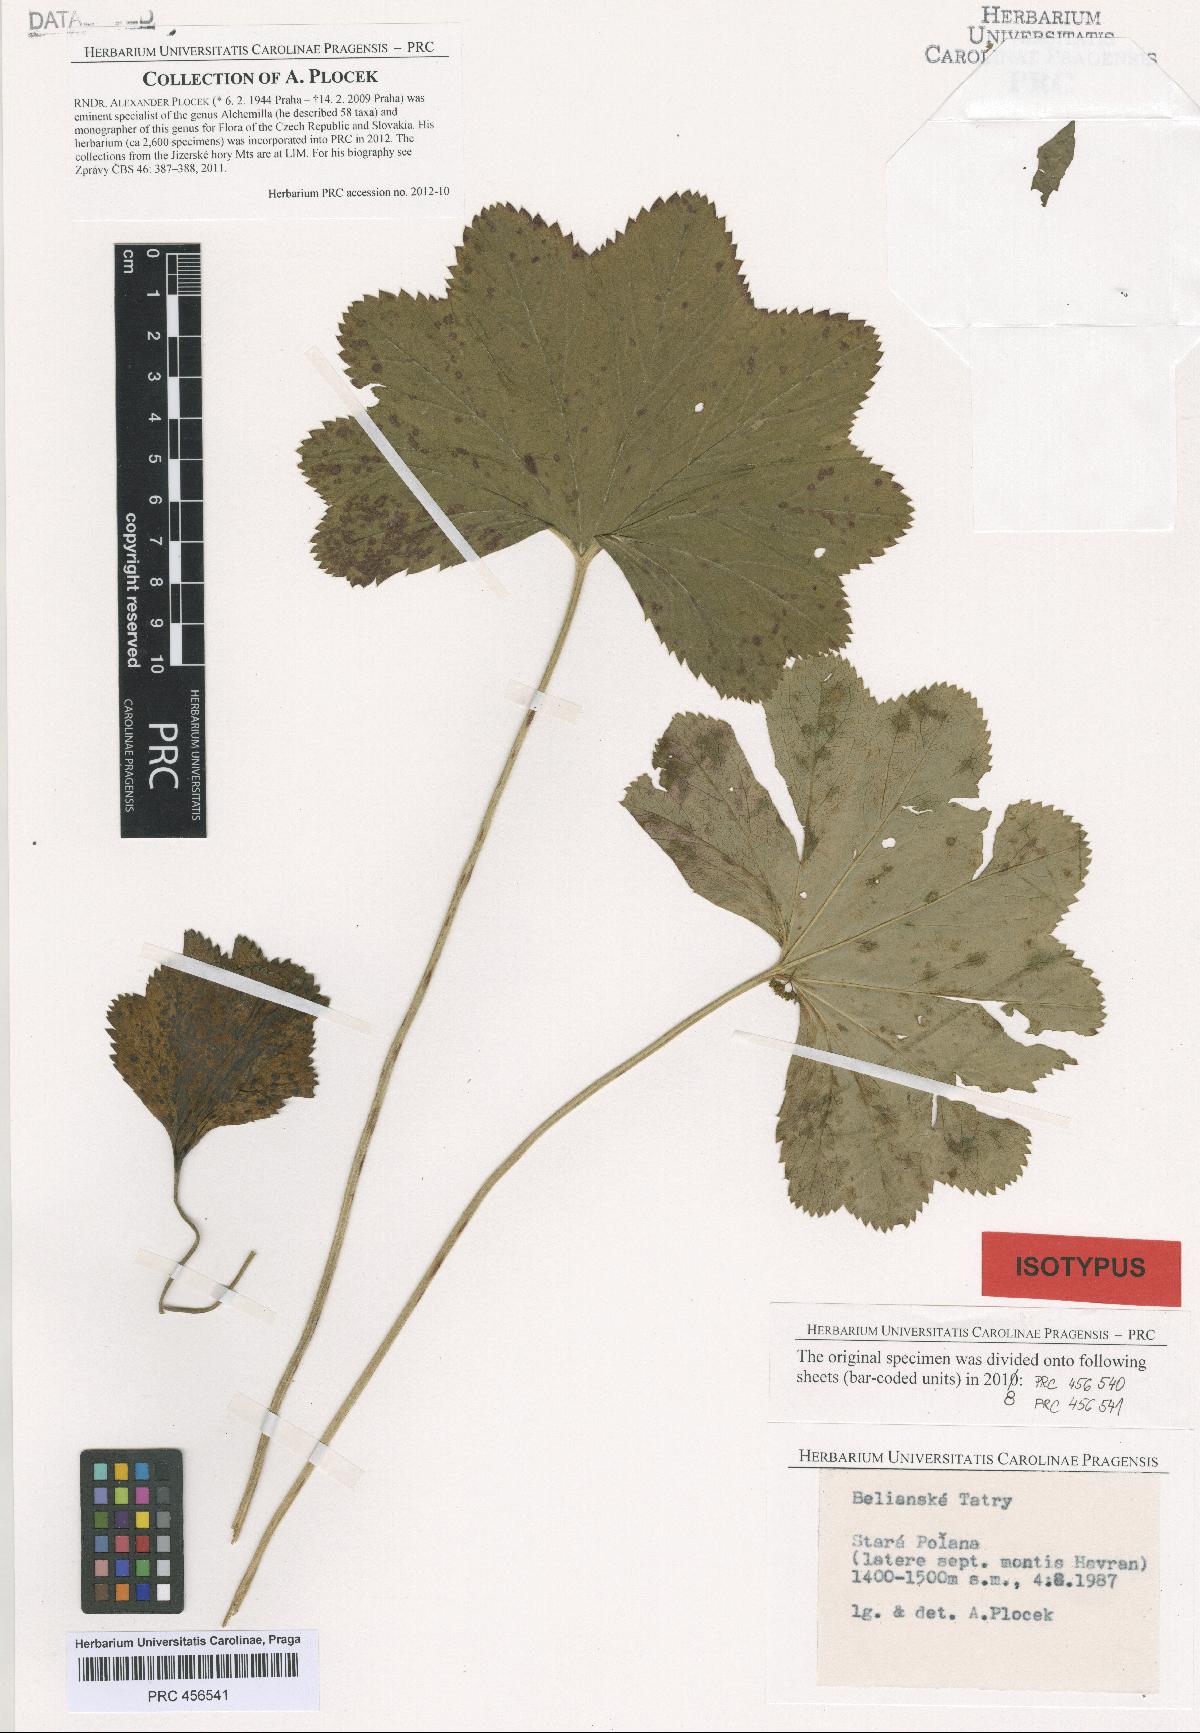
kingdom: Plantae
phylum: Tracheophyta
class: Magnoliopsida
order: Rosales
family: Rosaceae
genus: Alchemilla
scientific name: Alchemilla amauroptera
